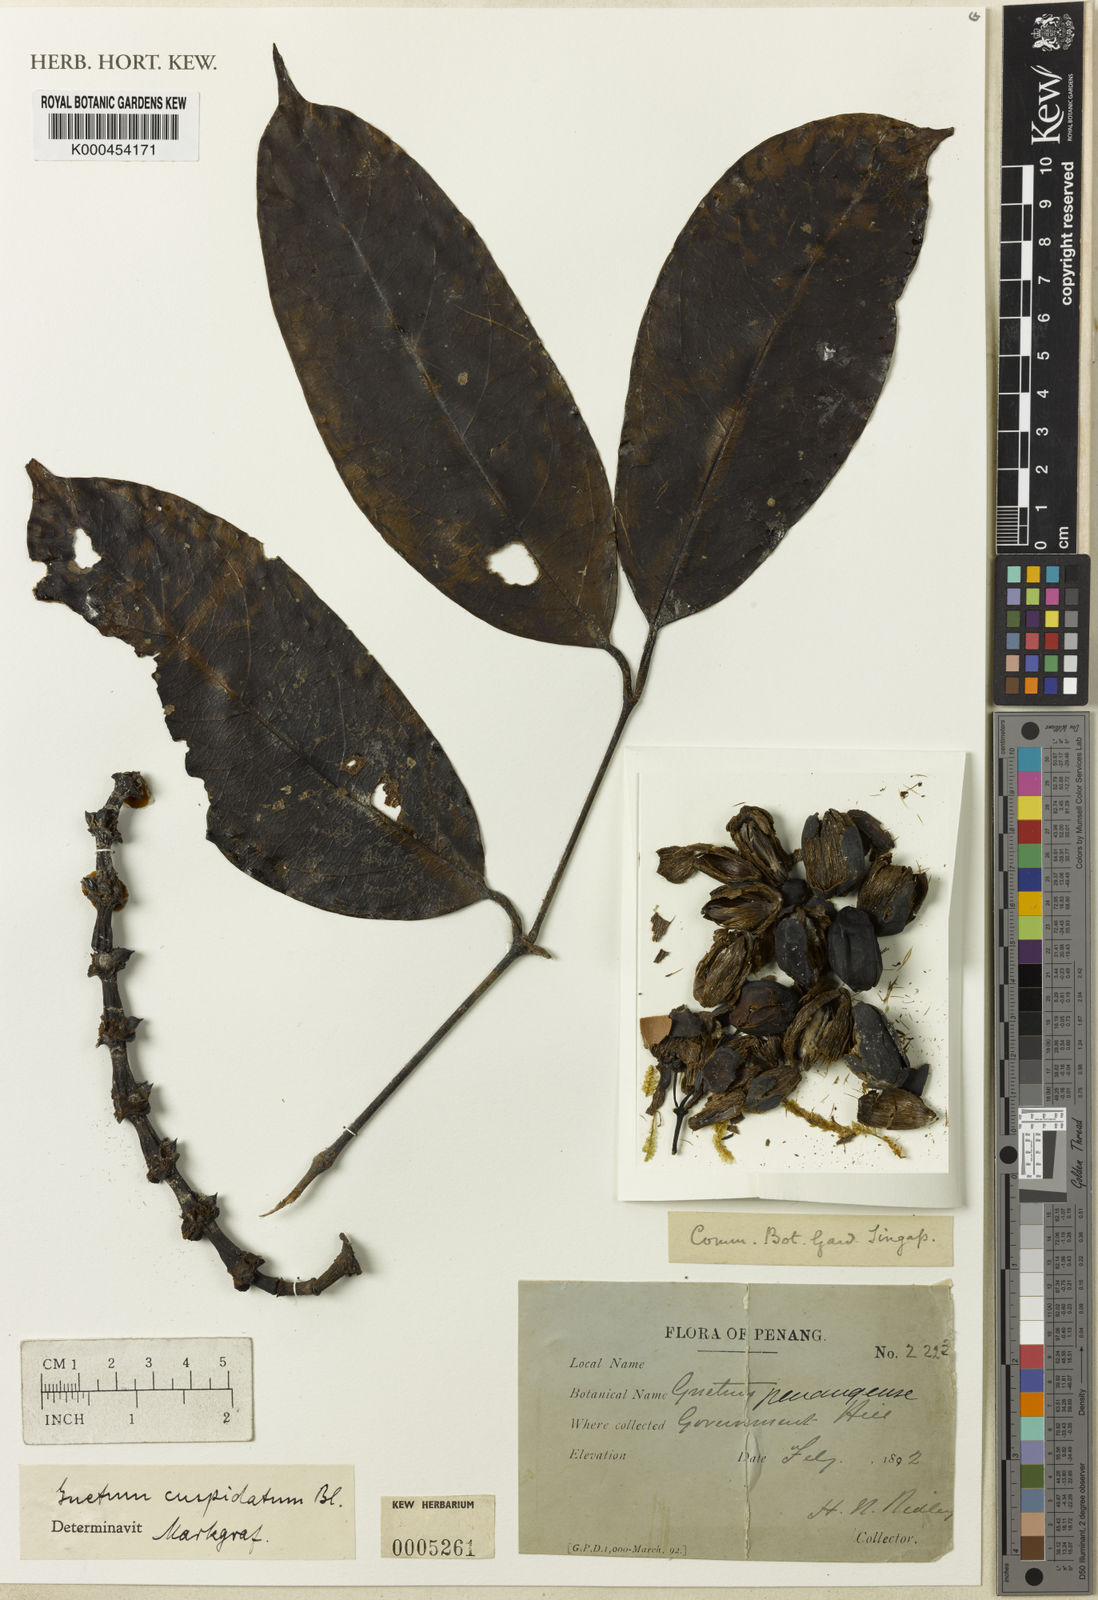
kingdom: Plantae
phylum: Tracheophyta
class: Gnetopsida
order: Gnetales
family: Gnetaceae
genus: Gnetum
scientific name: Gnetum cuspidatum
